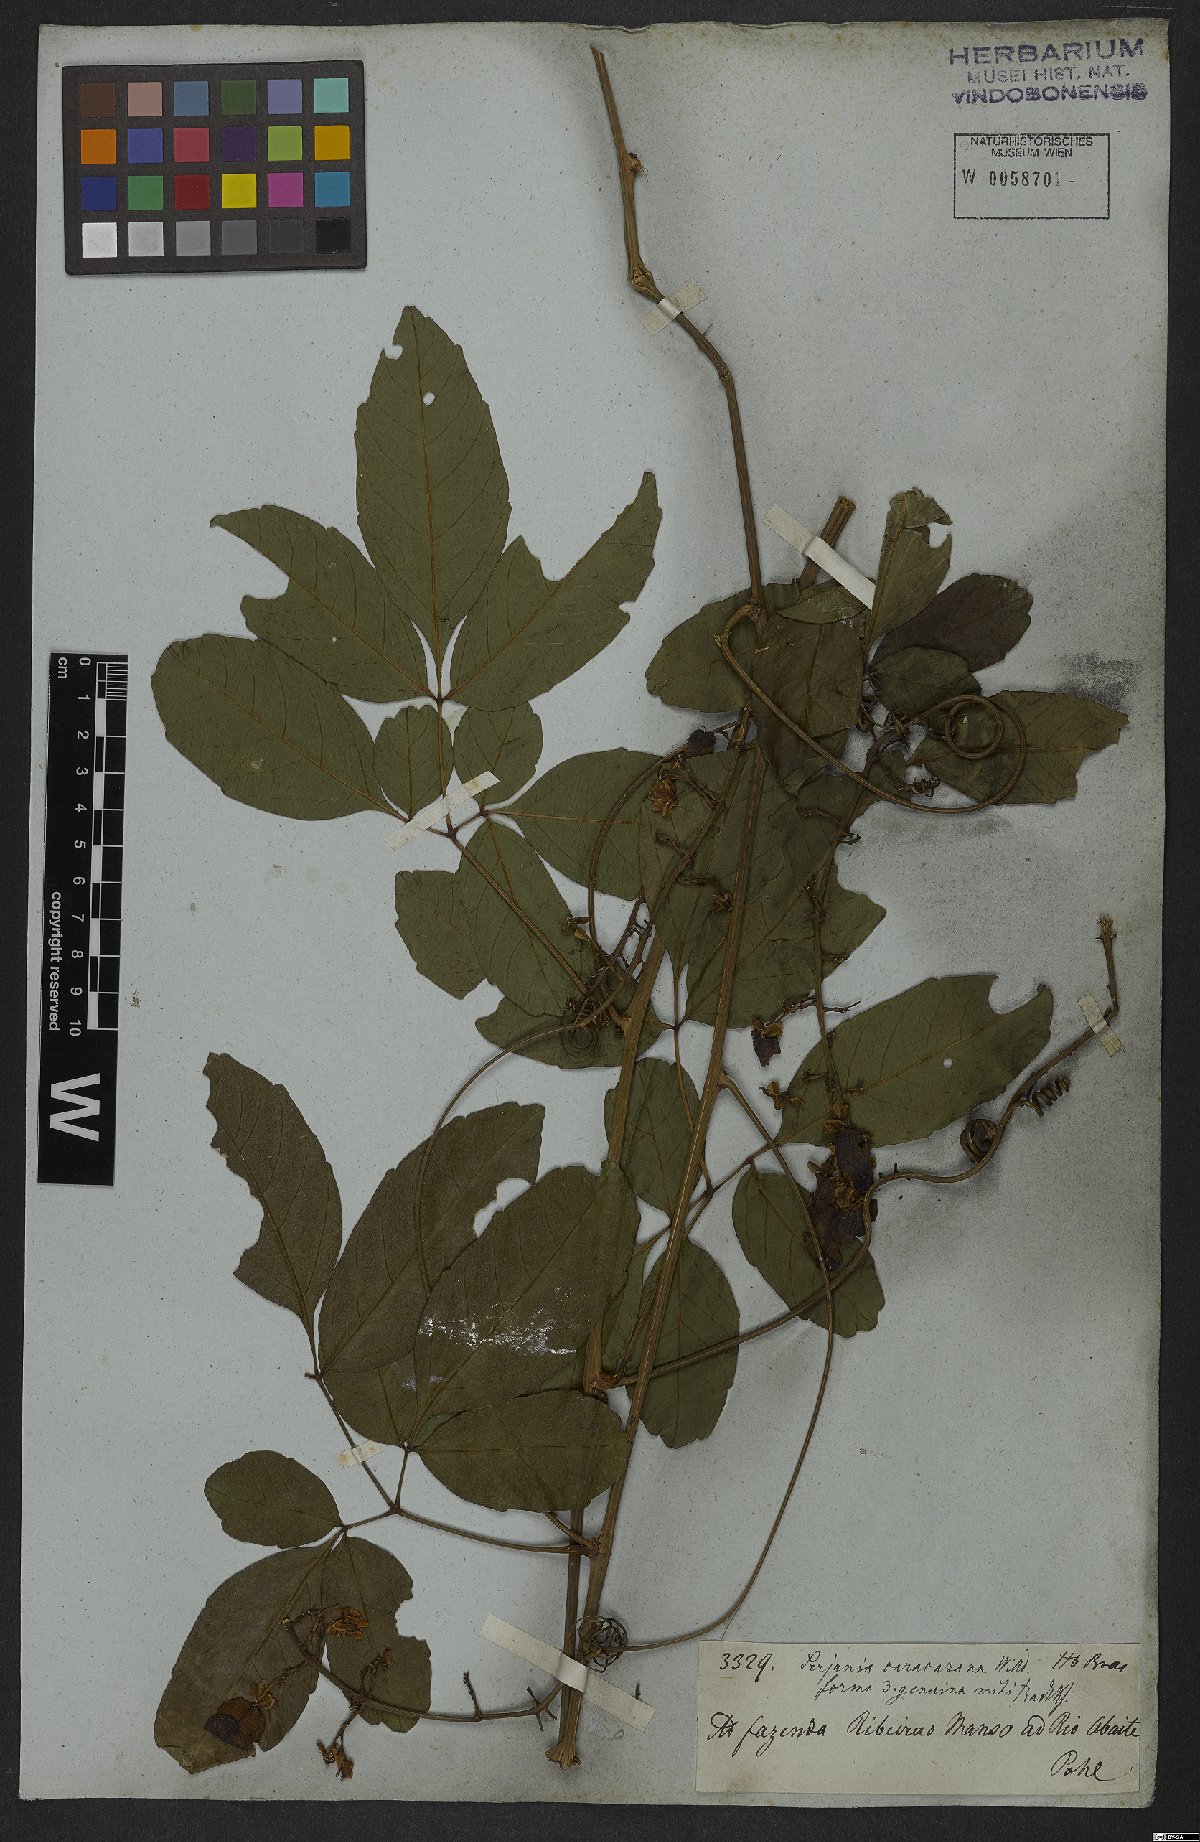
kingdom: Plantae
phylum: Tracheophyta
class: Magnoliopsida
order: Sapindales
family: Sapindaceae
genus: Serjania
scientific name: Serjania caracasana
